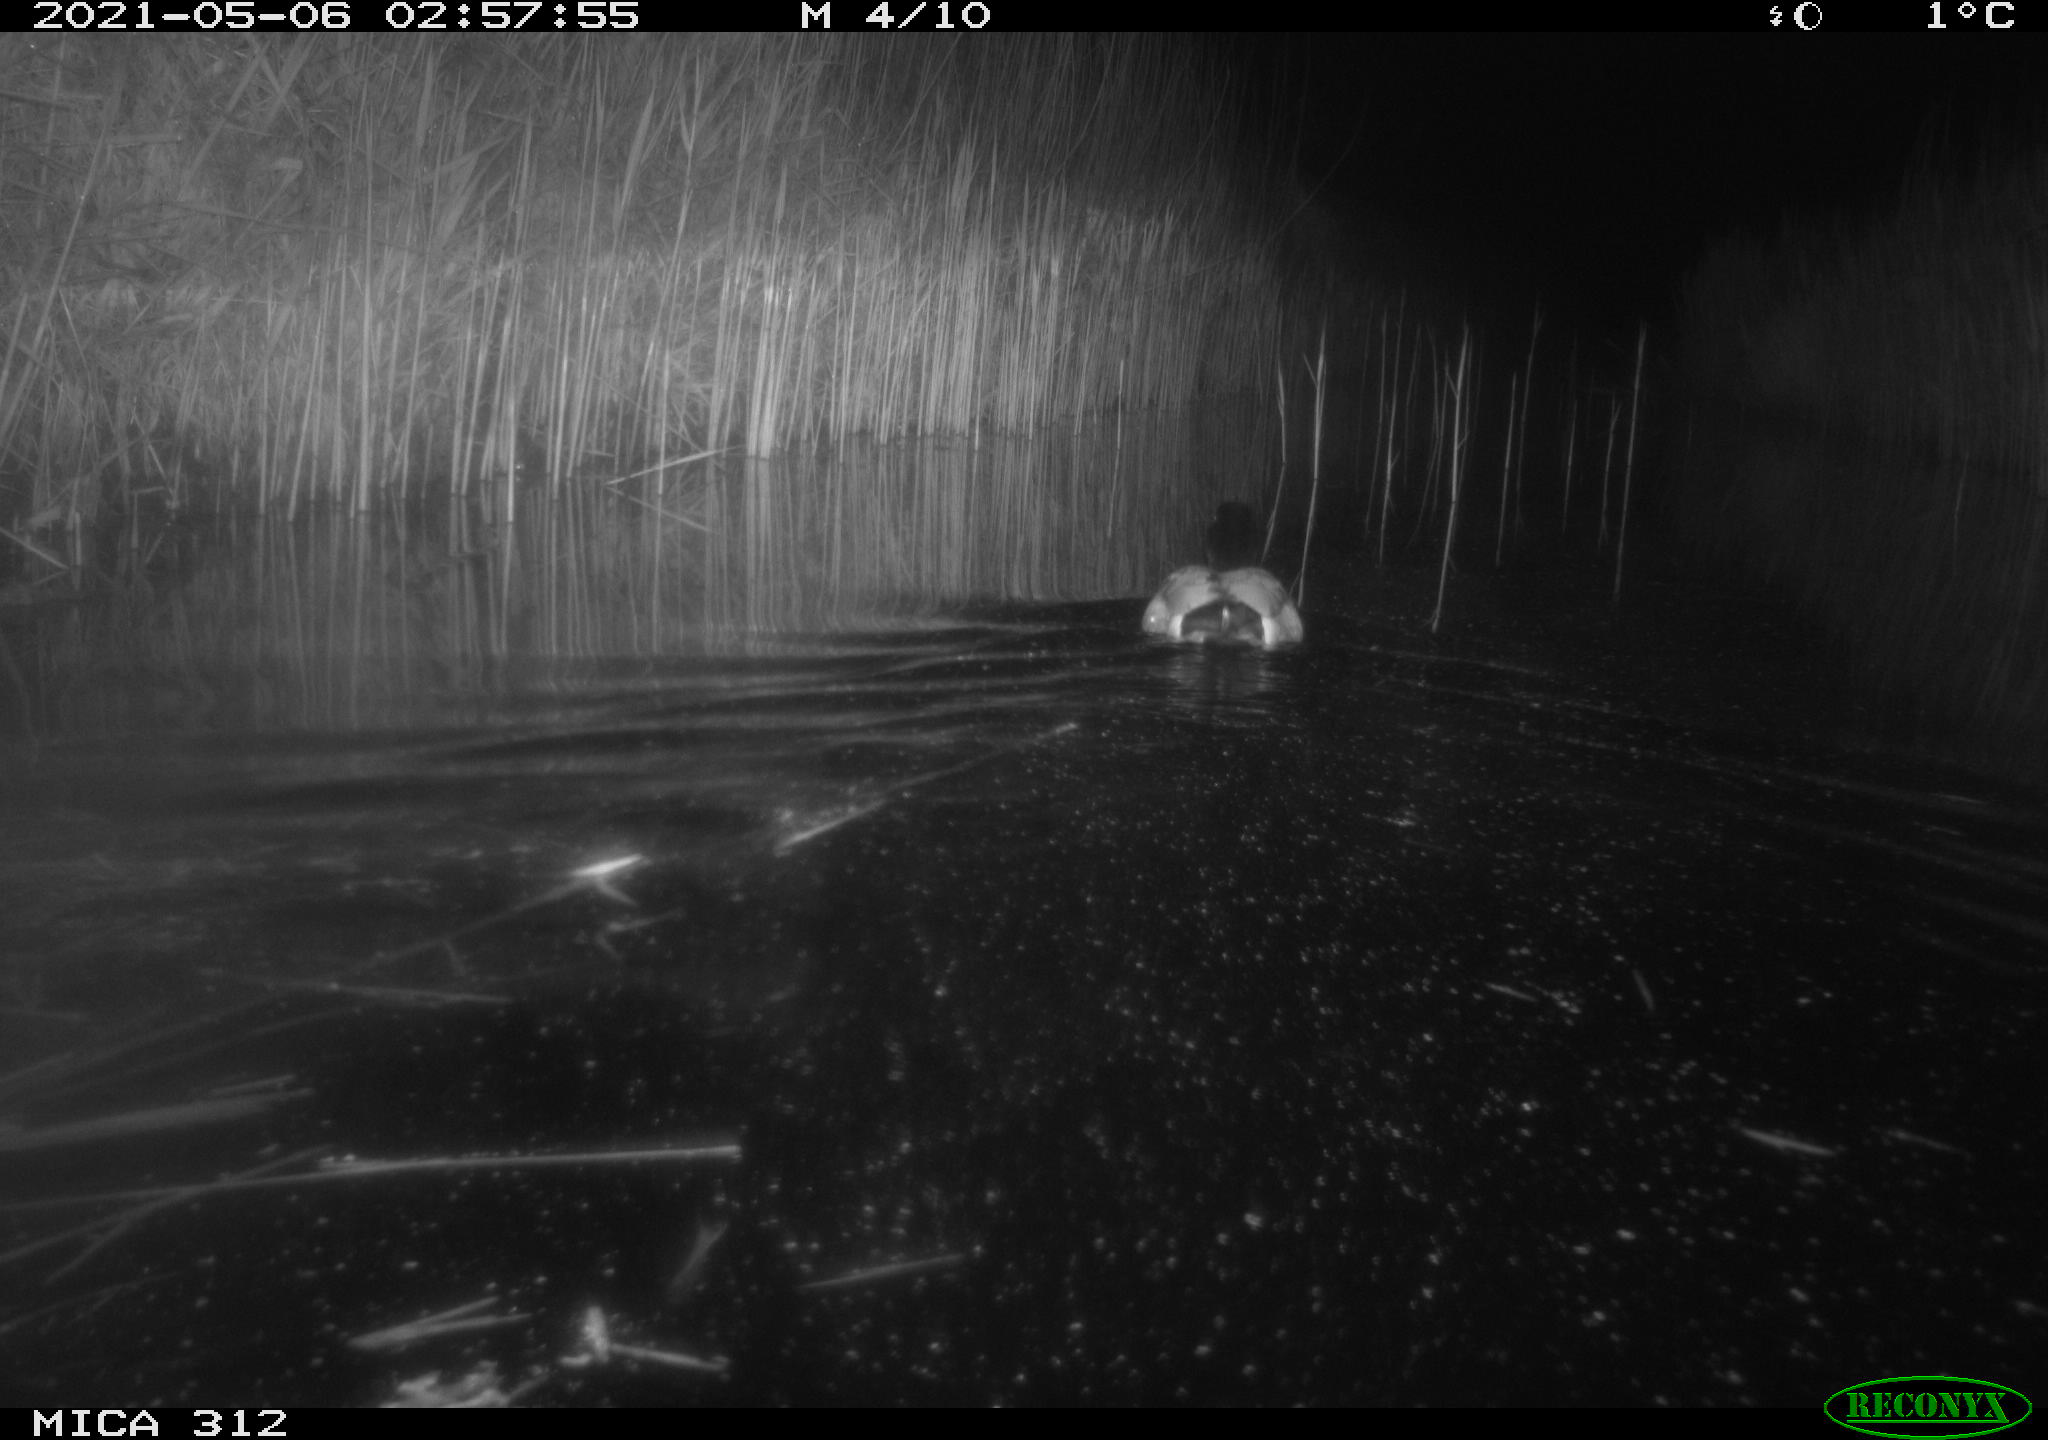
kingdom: Animalia
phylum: Chordata
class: Aves
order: Anseriformes
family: Anatidae
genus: Anas
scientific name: Anas platyrhynchos
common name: Mallard
